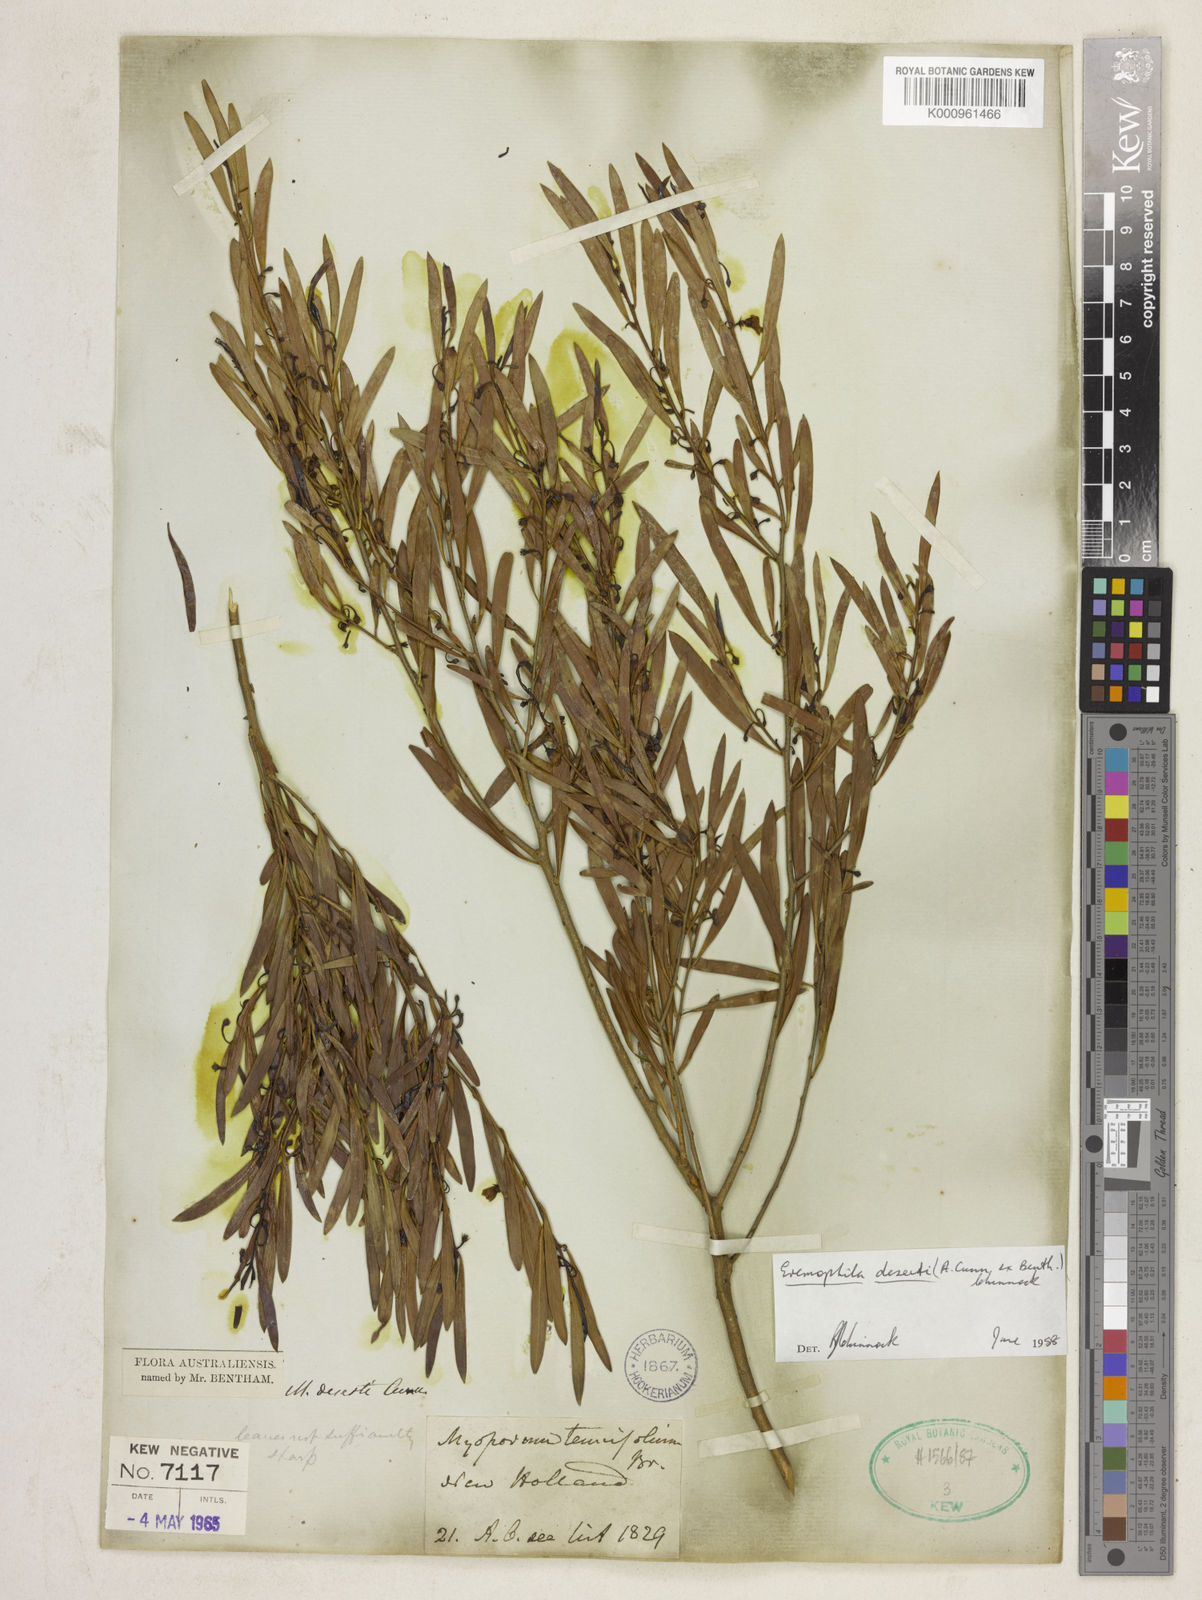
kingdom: Plantae
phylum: Tracheophyta
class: Magnoliopsida
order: Lamiales
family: Scrophulariaceae
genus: Eremophila
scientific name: Eremophila deserti
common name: Ellangowan-poisonbush
